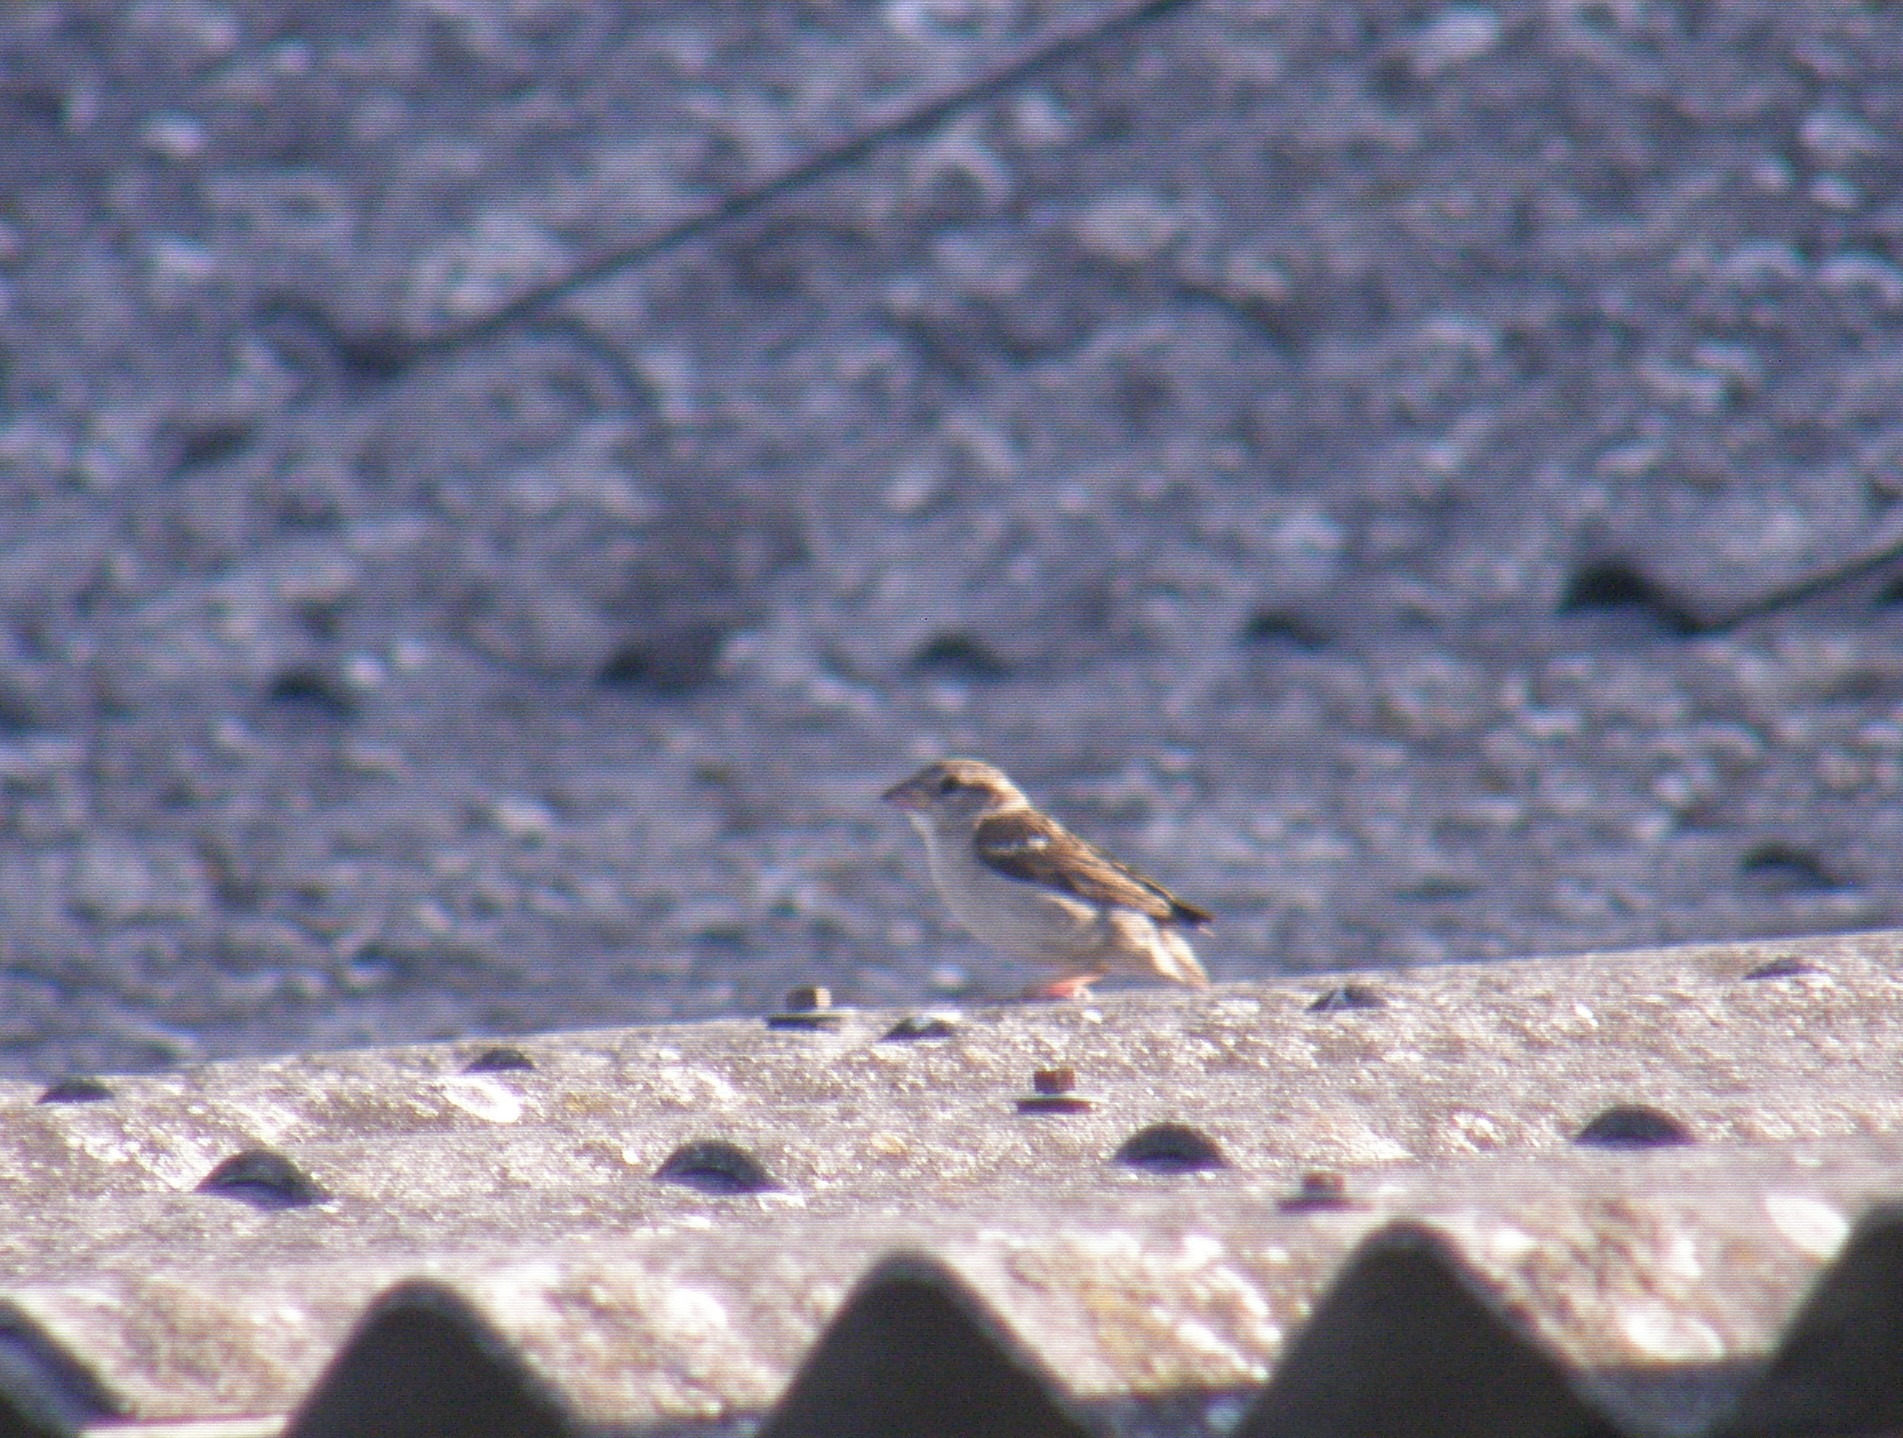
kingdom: Animalia
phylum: Chordata
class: Aves
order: Passeriformes
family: Passeridae
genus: Passer
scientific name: Passer domesticus
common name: Gråspurv
